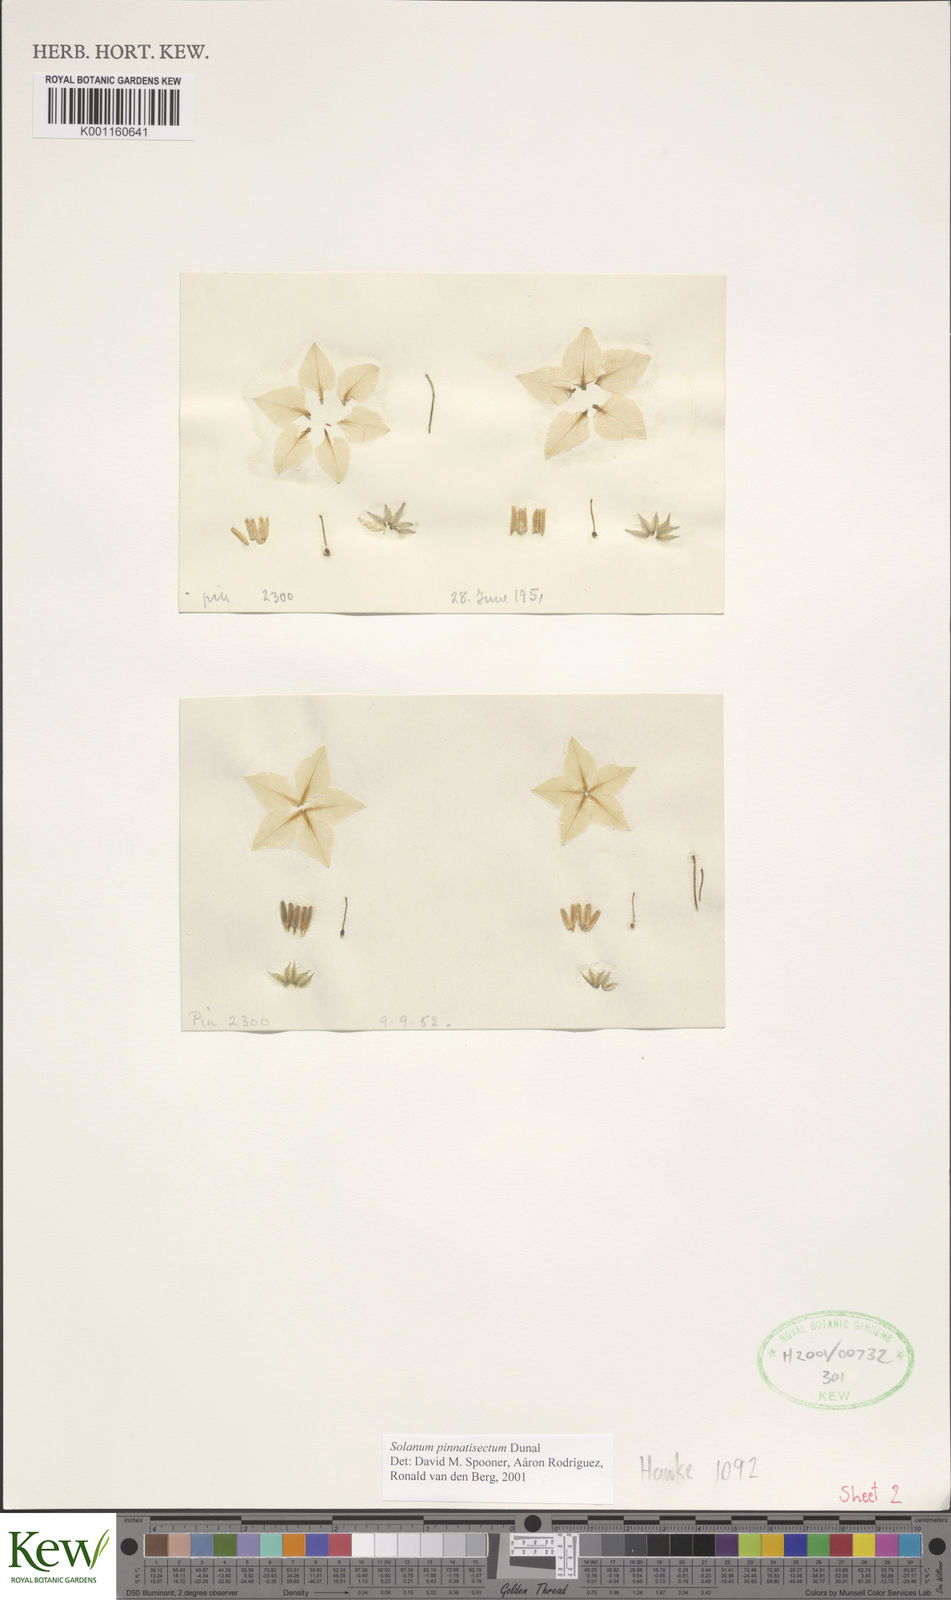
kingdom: Plantae
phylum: Tracheophyta
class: Magnoliopsida
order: Solanales
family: Solanaceae
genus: Solanum
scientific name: Solanum pinnatisectum
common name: Tansyleaf nightshade
